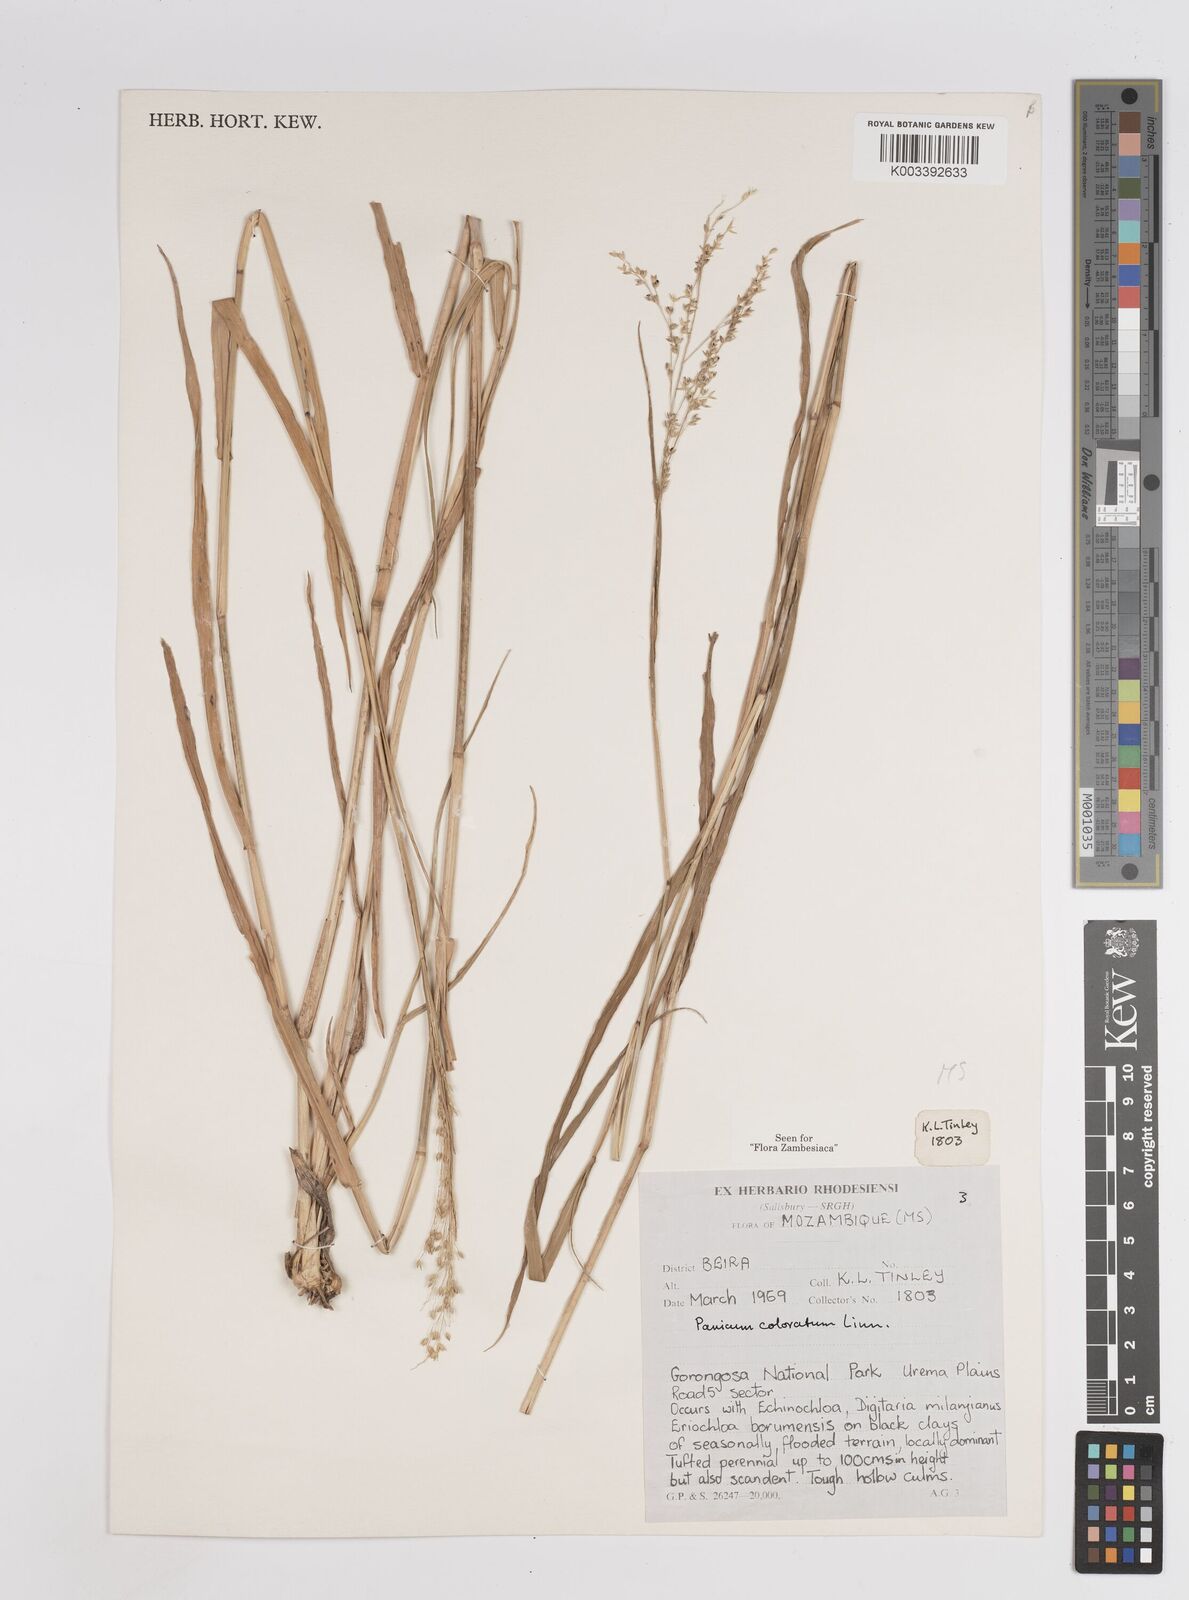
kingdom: Plantae
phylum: Tracheophyta
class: Liliopsida
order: Poales
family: Poaceae
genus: Panicum
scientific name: Panicum
